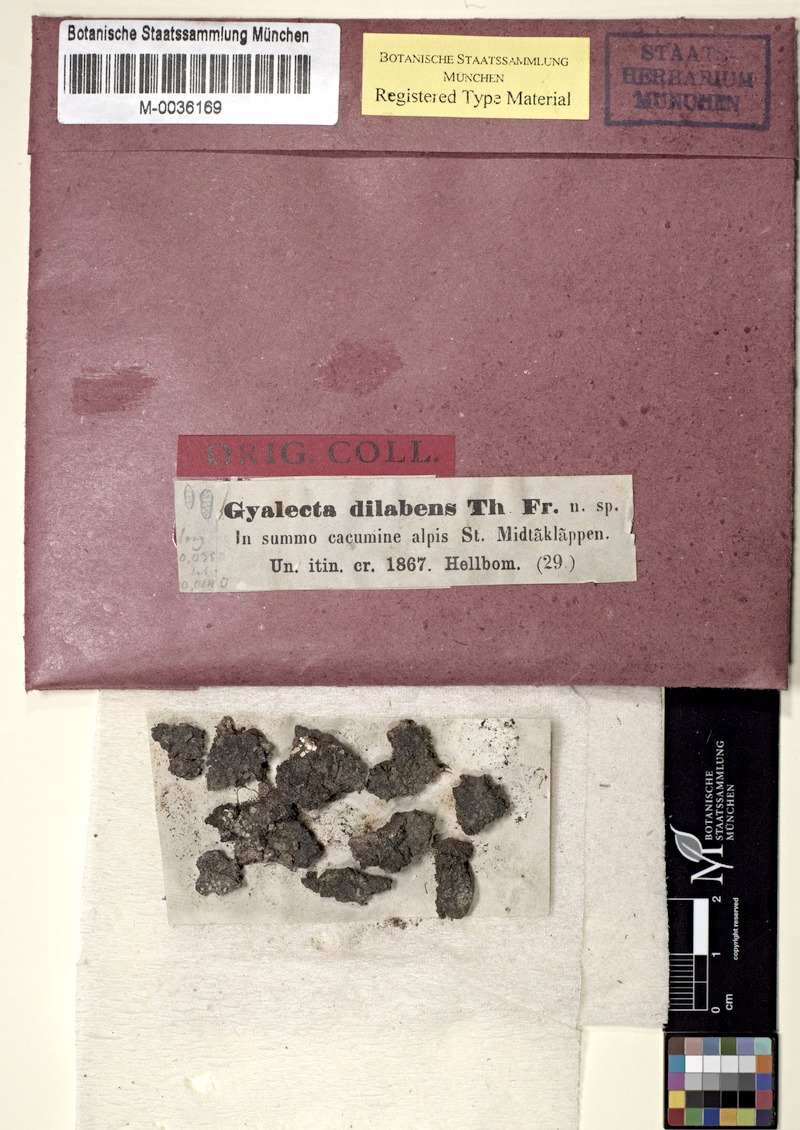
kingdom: Fungi
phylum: Ascomycota
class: Lecanoromycetes
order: Ostropales
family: Graphidaceae
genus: Gyalidea
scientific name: Gyalidea scutellaris
